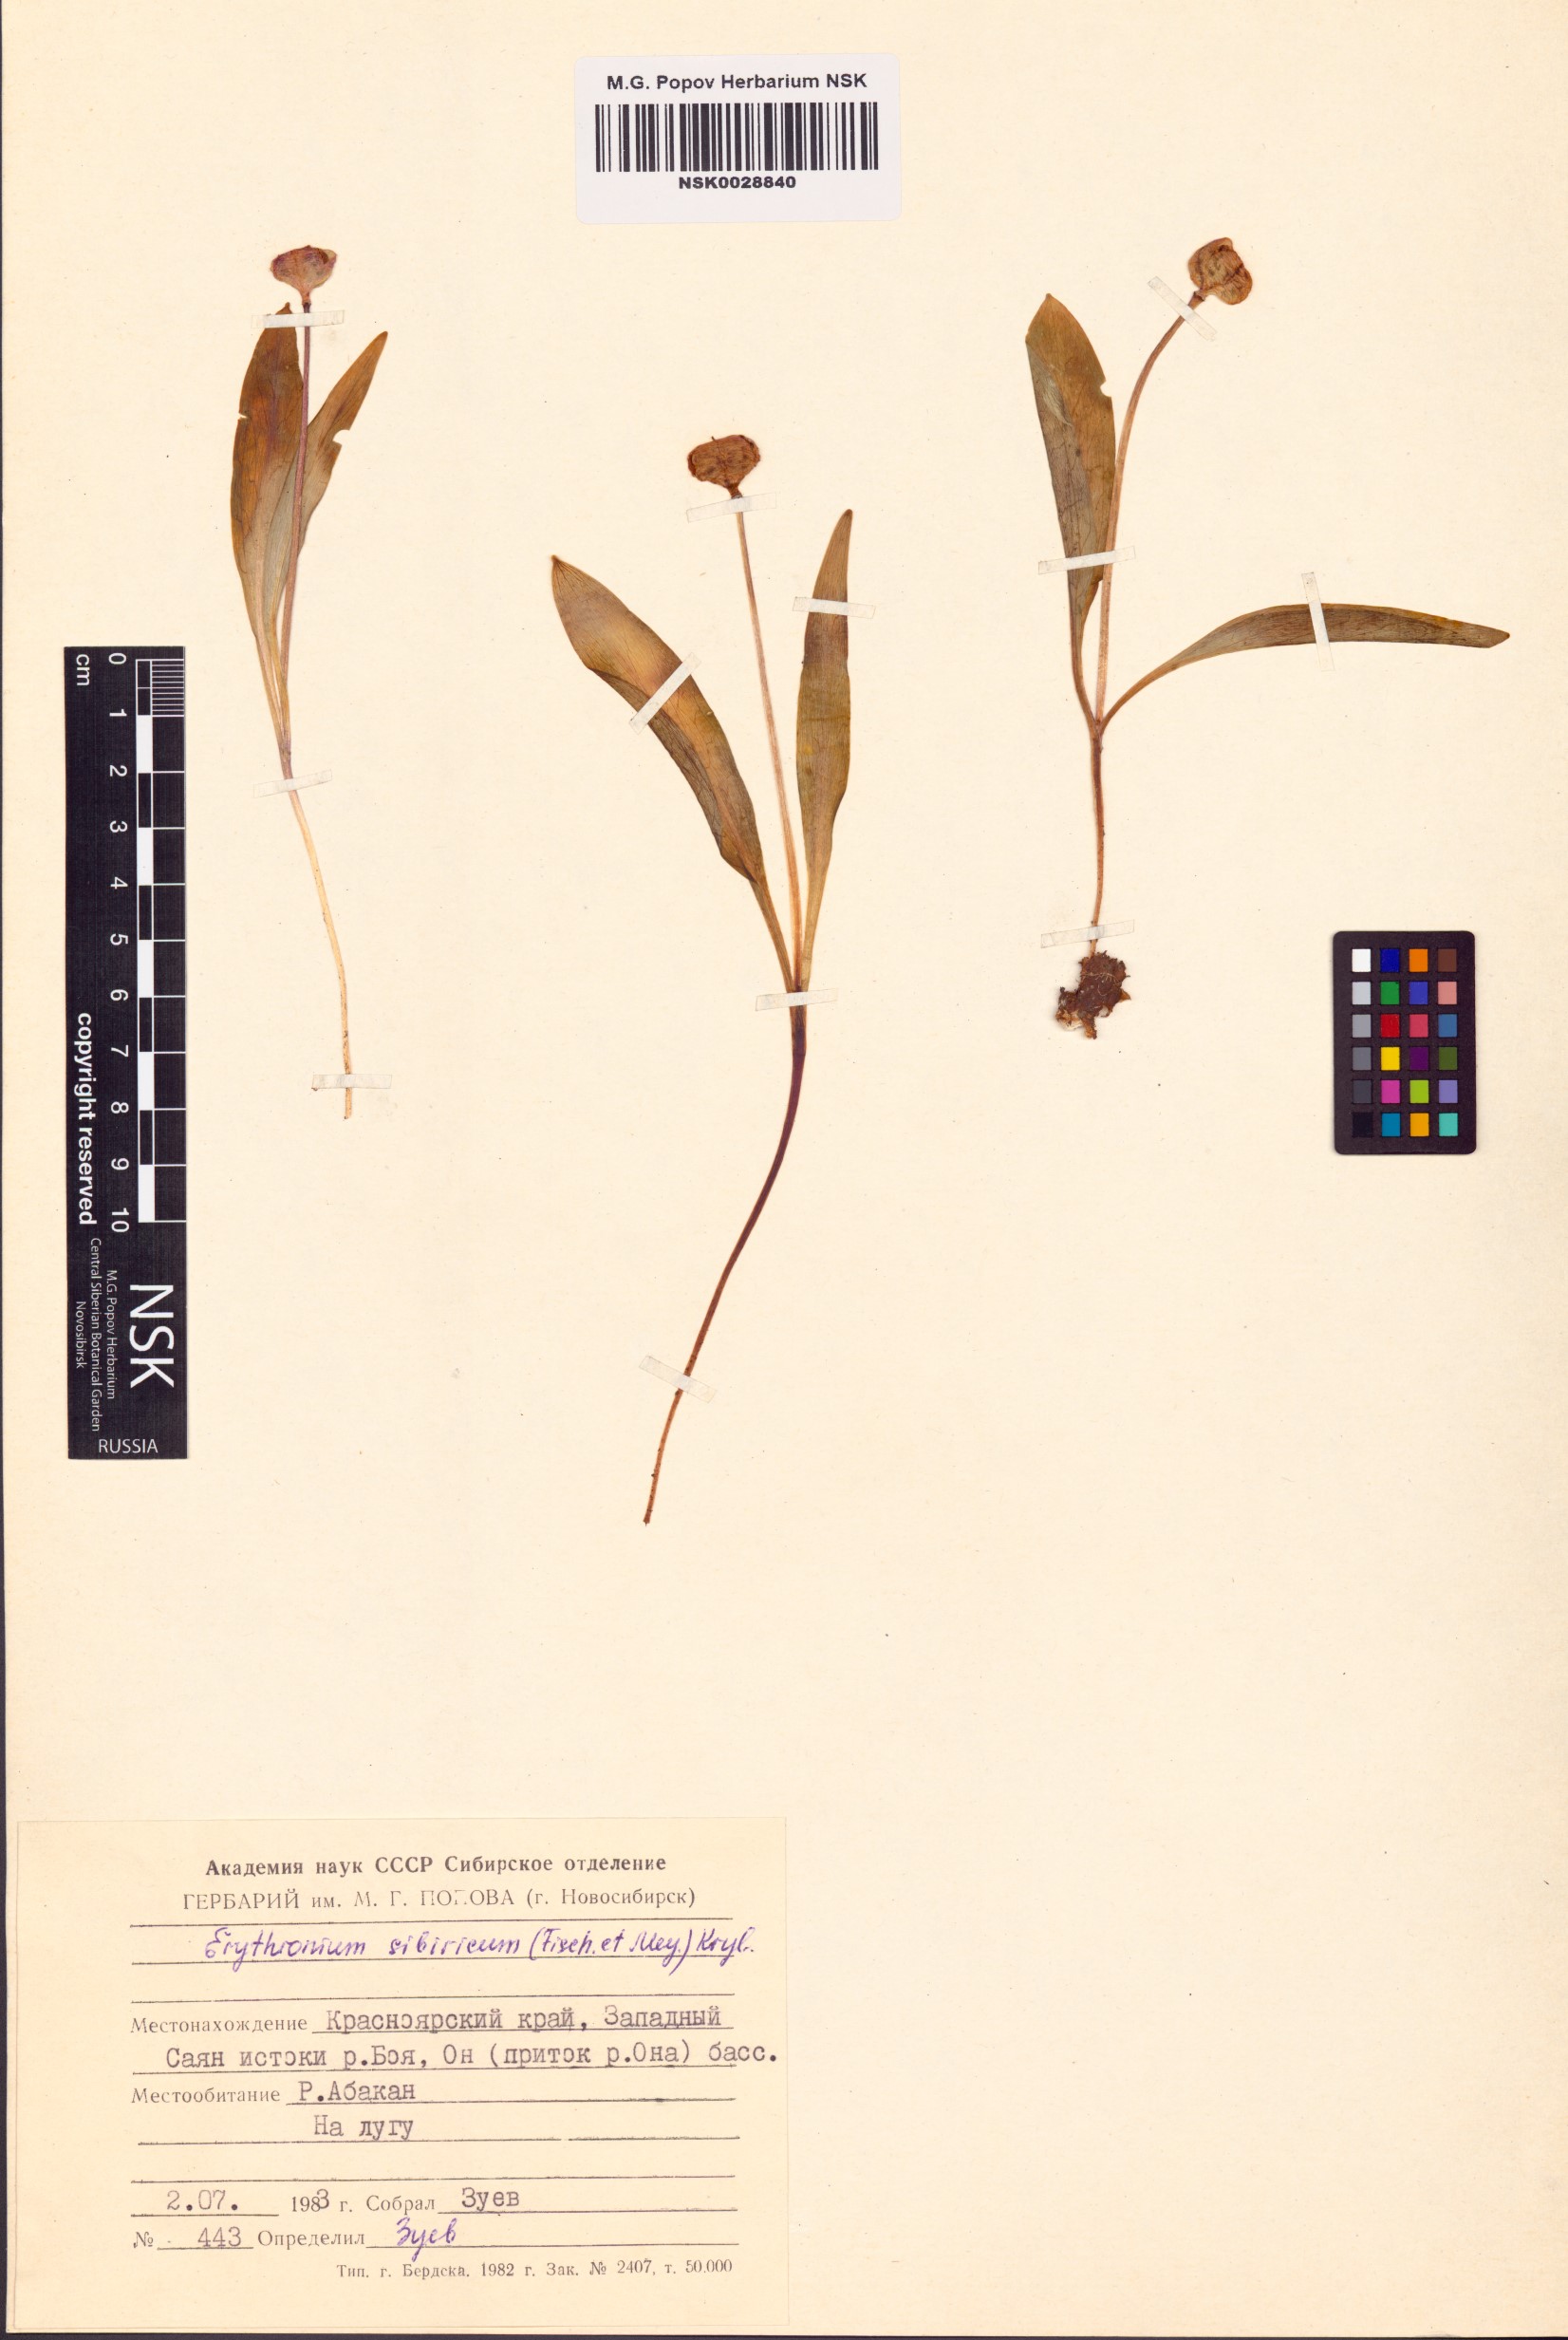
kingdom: Plantae
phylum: Tracheophyta
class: Liliopsida
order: Liliales
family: Liliaceae
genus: Erythronium
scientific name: Erythronium sibiricum
